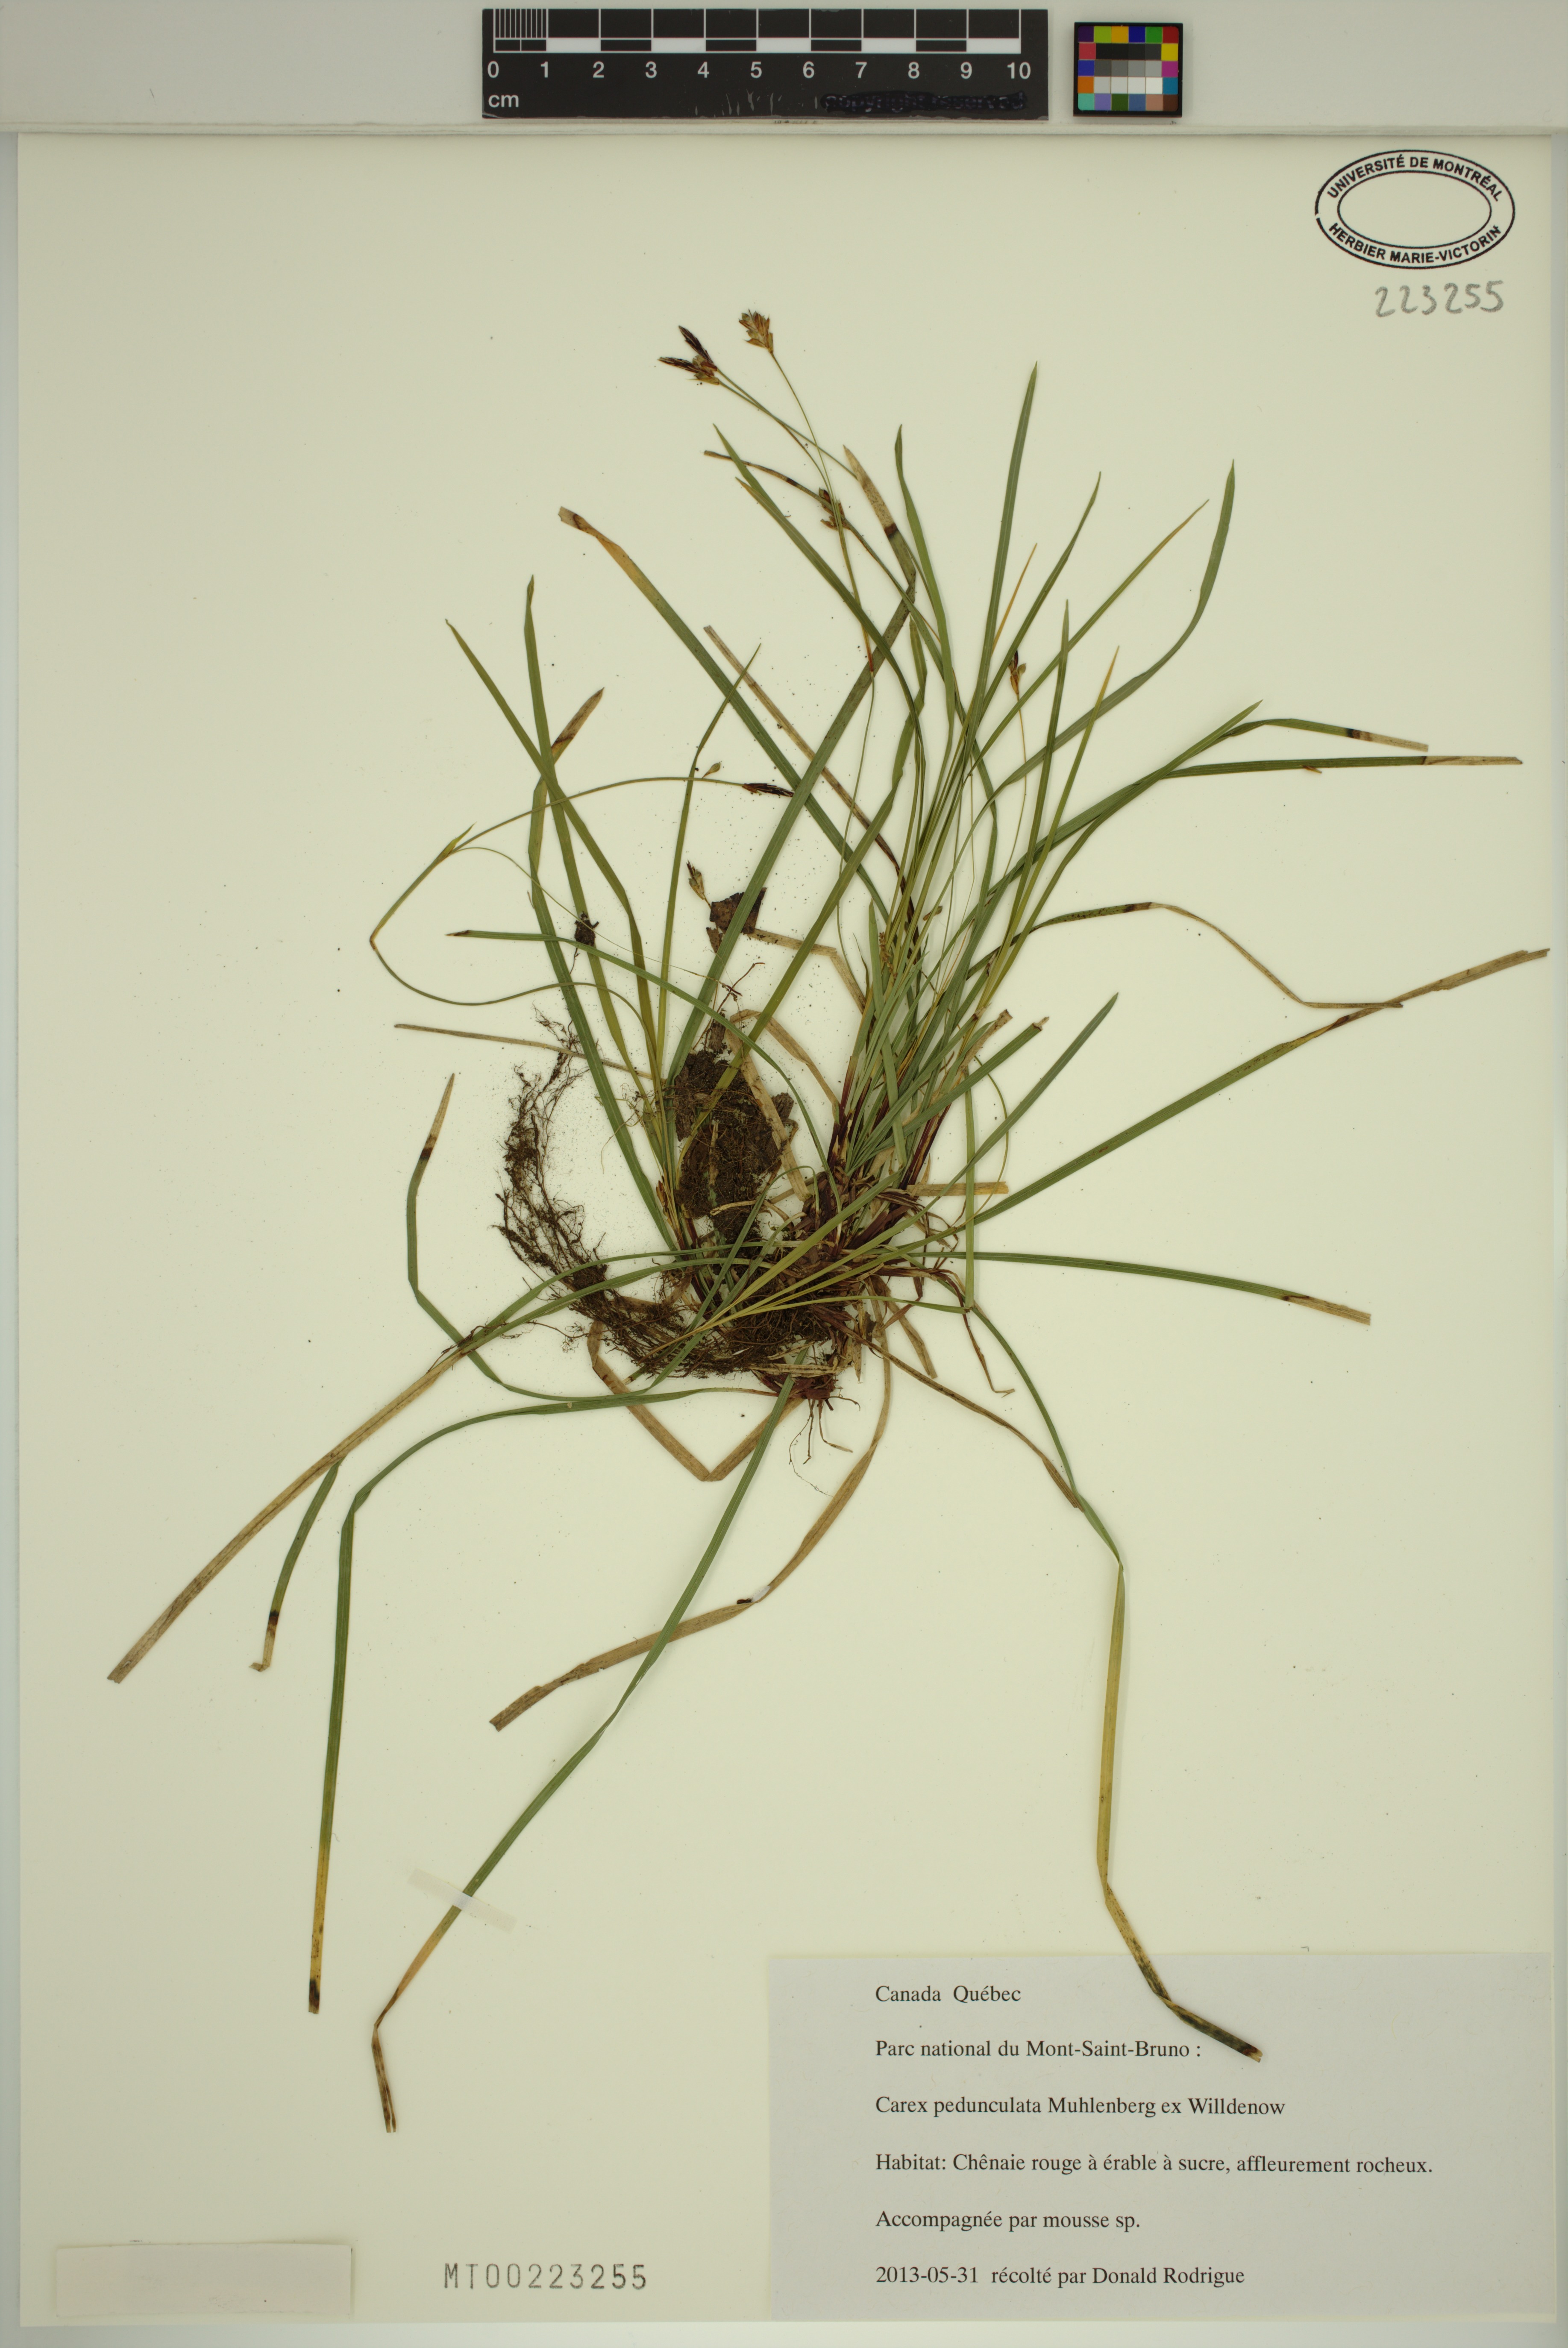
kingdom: Plantae
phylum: Tracheophyta
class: Liliopsida
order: Poales
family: Cyperaceae
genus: Carex
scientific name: Carex pedunculata
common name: Pedunculate sedge
